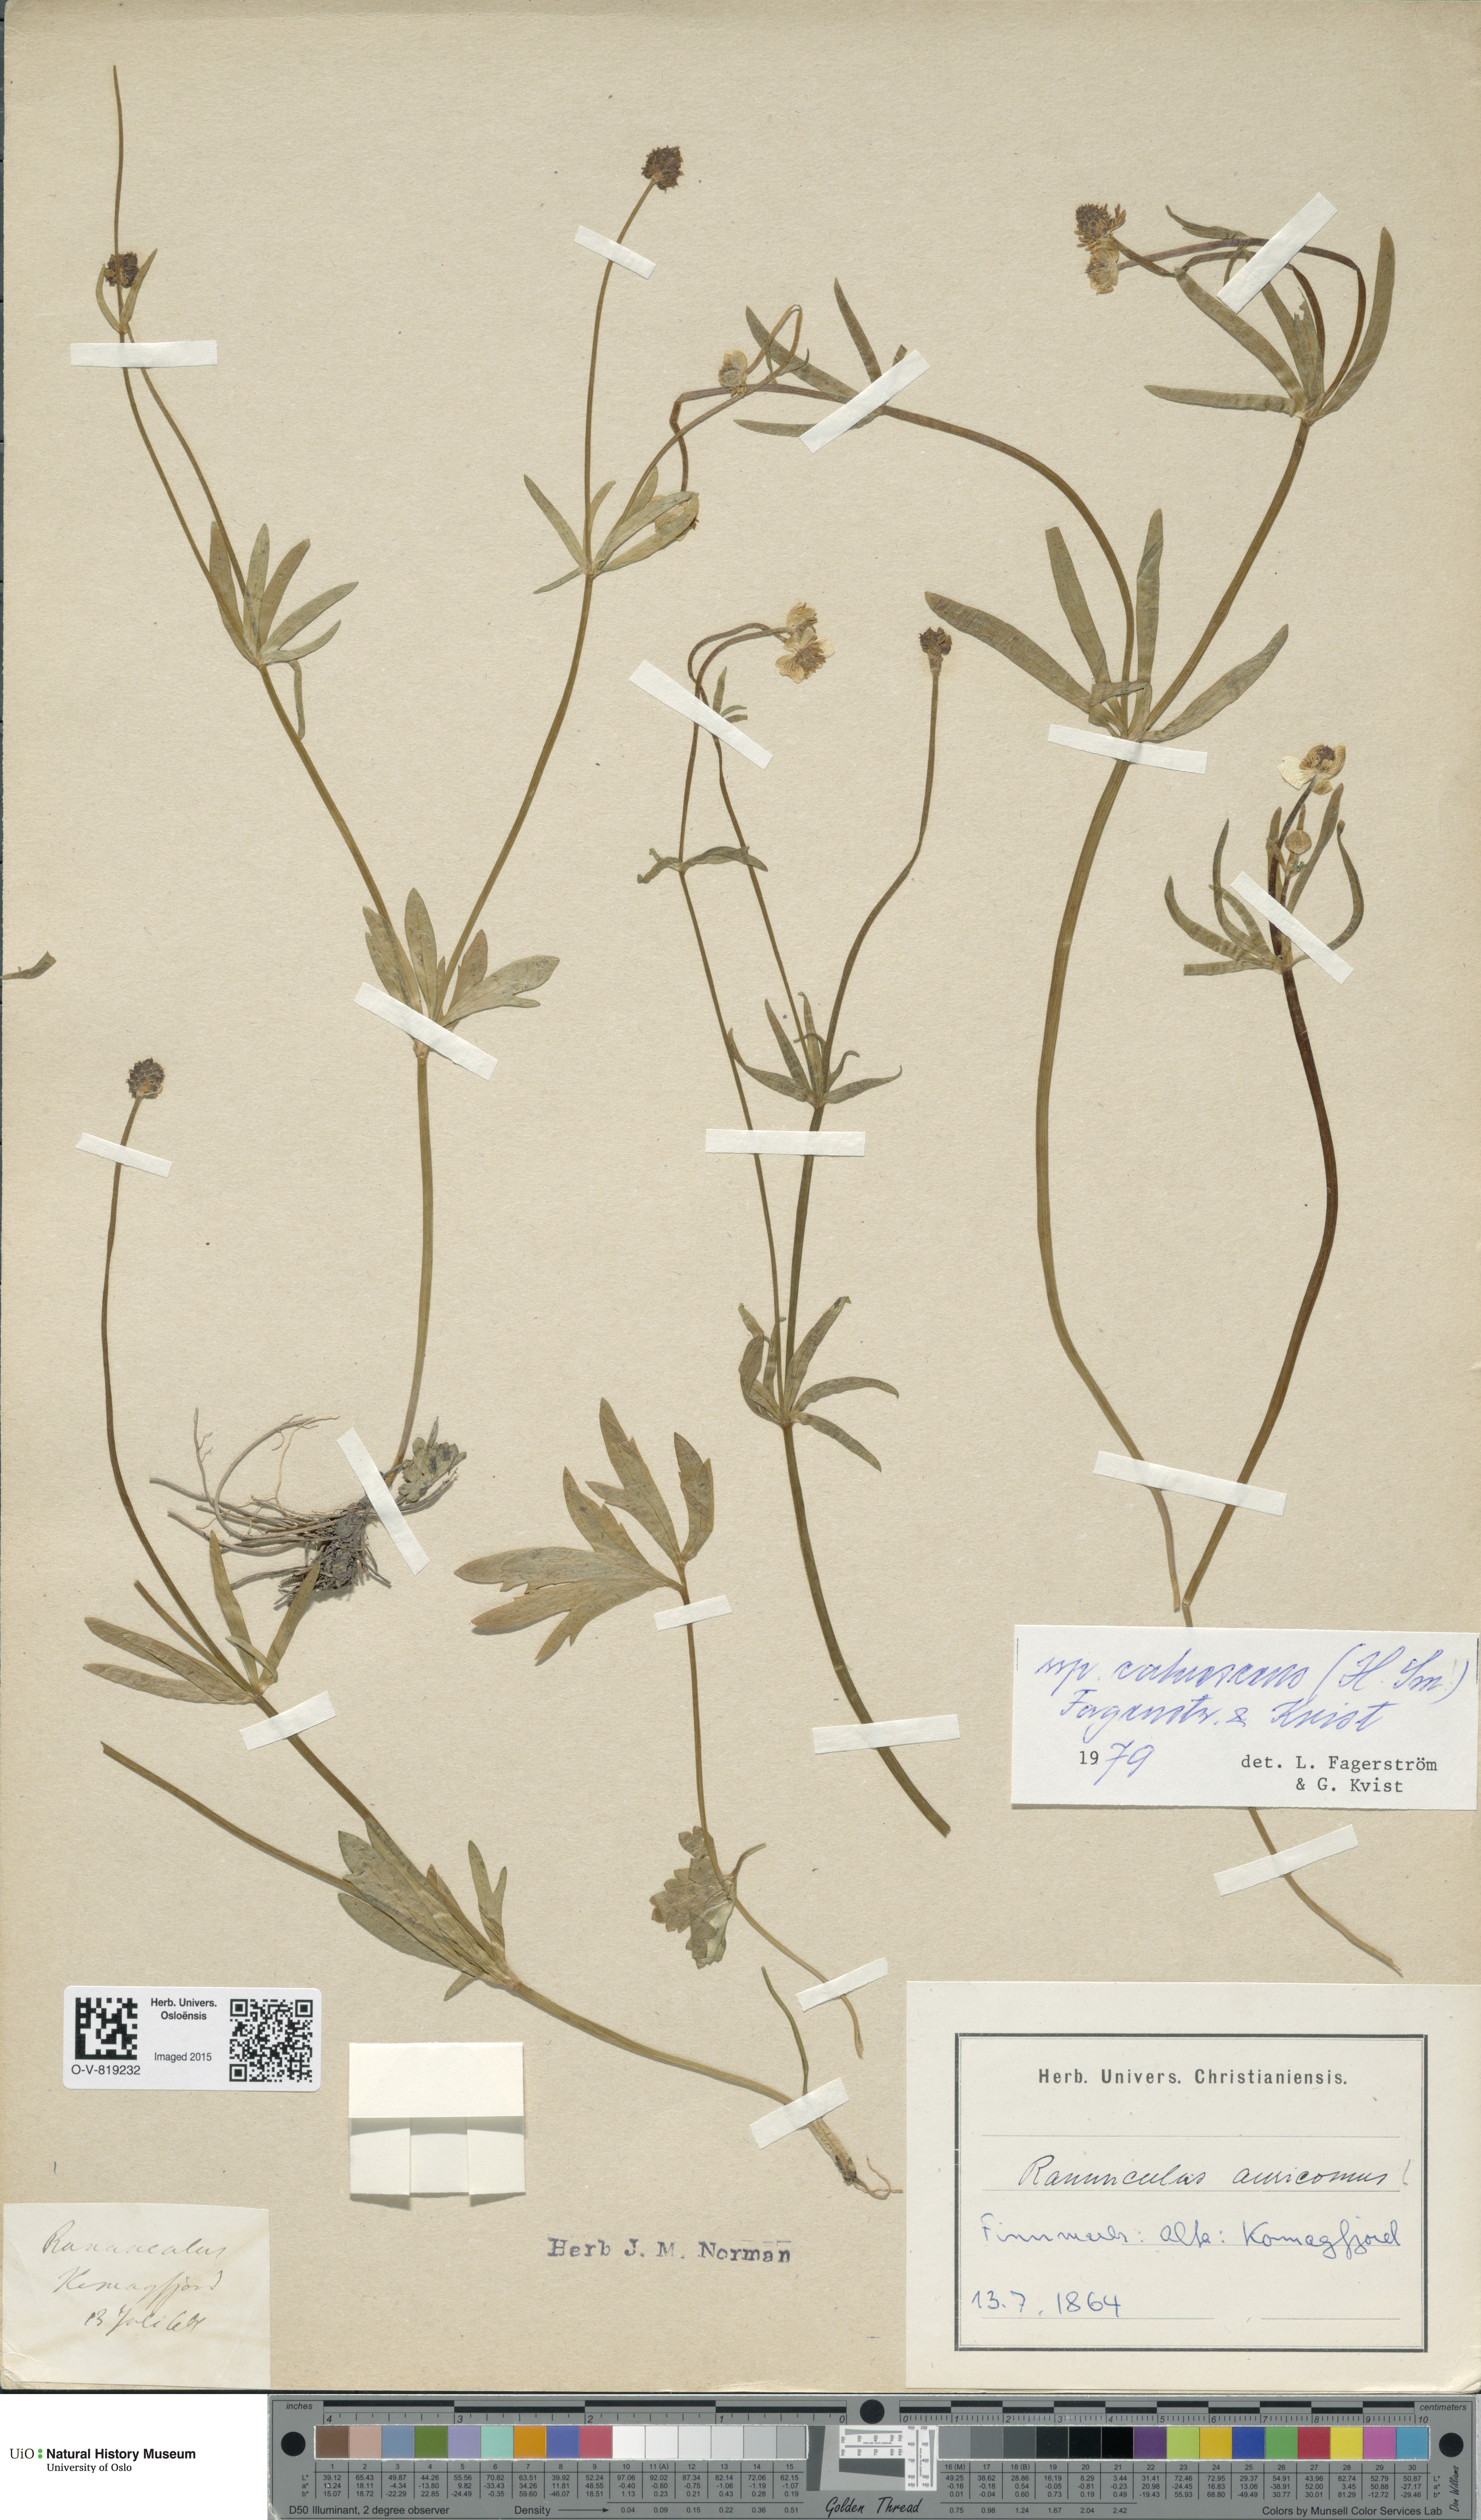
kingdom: Plantae
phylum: Tracheophyta
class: Magnoliopsida
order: Ranunculales
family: Ranunculaceae
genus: Ranunculus
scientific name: Ranunculus calvescens
